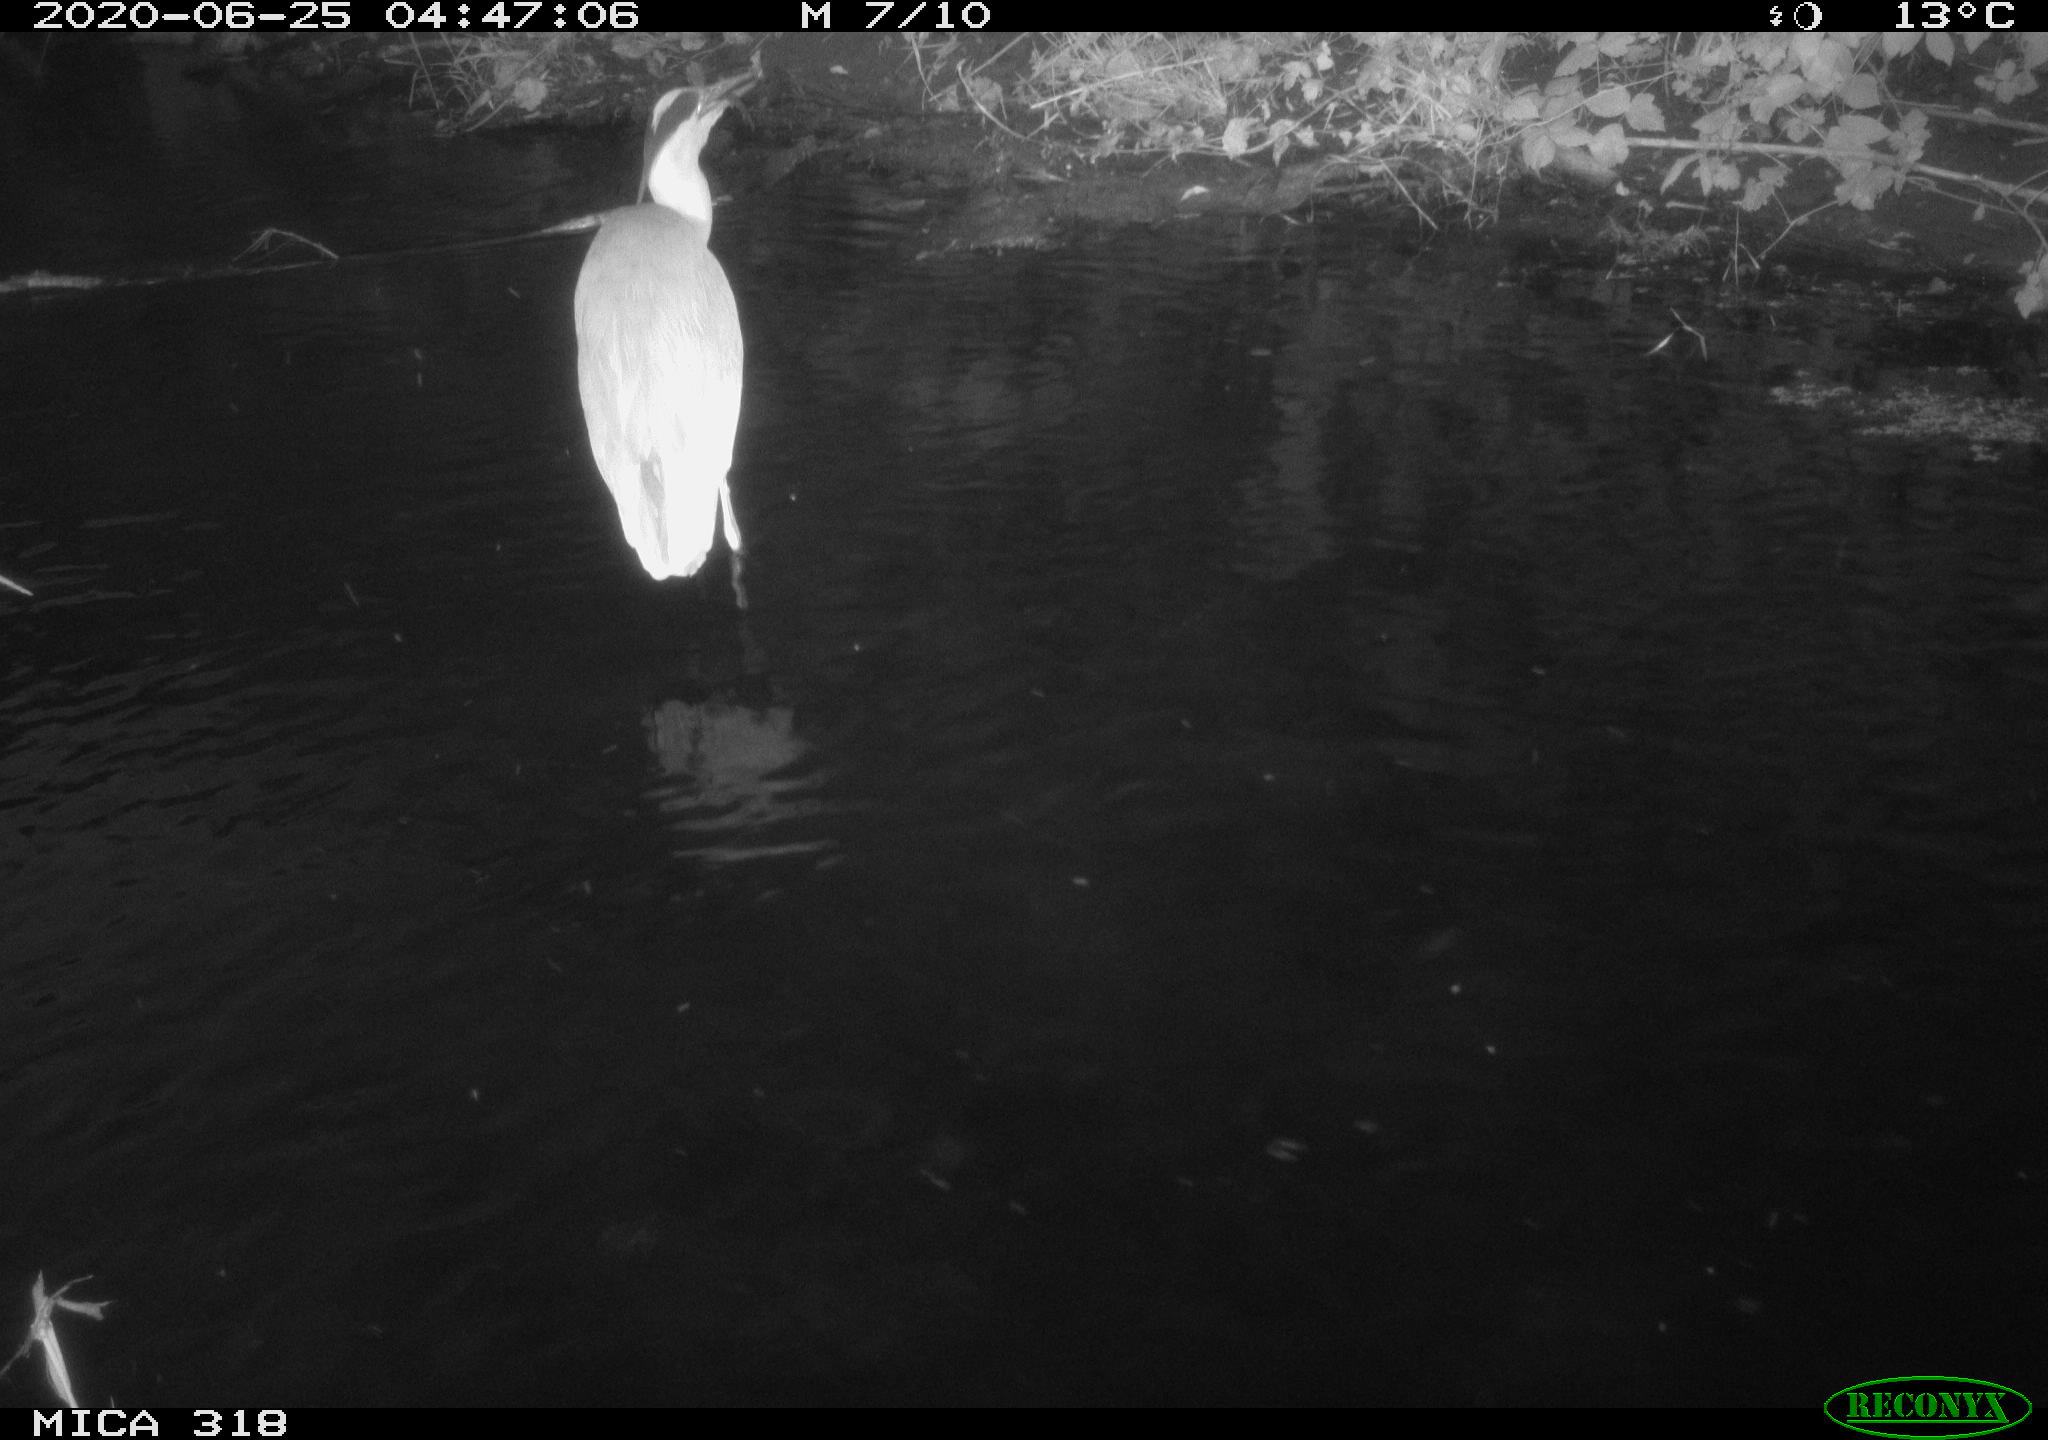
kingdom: Animalia
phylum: Chordata
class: Aves
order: Pelecaniformes
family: Ardeidae
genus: Ardea
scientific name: Ardea cinerea
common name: Grey heron
